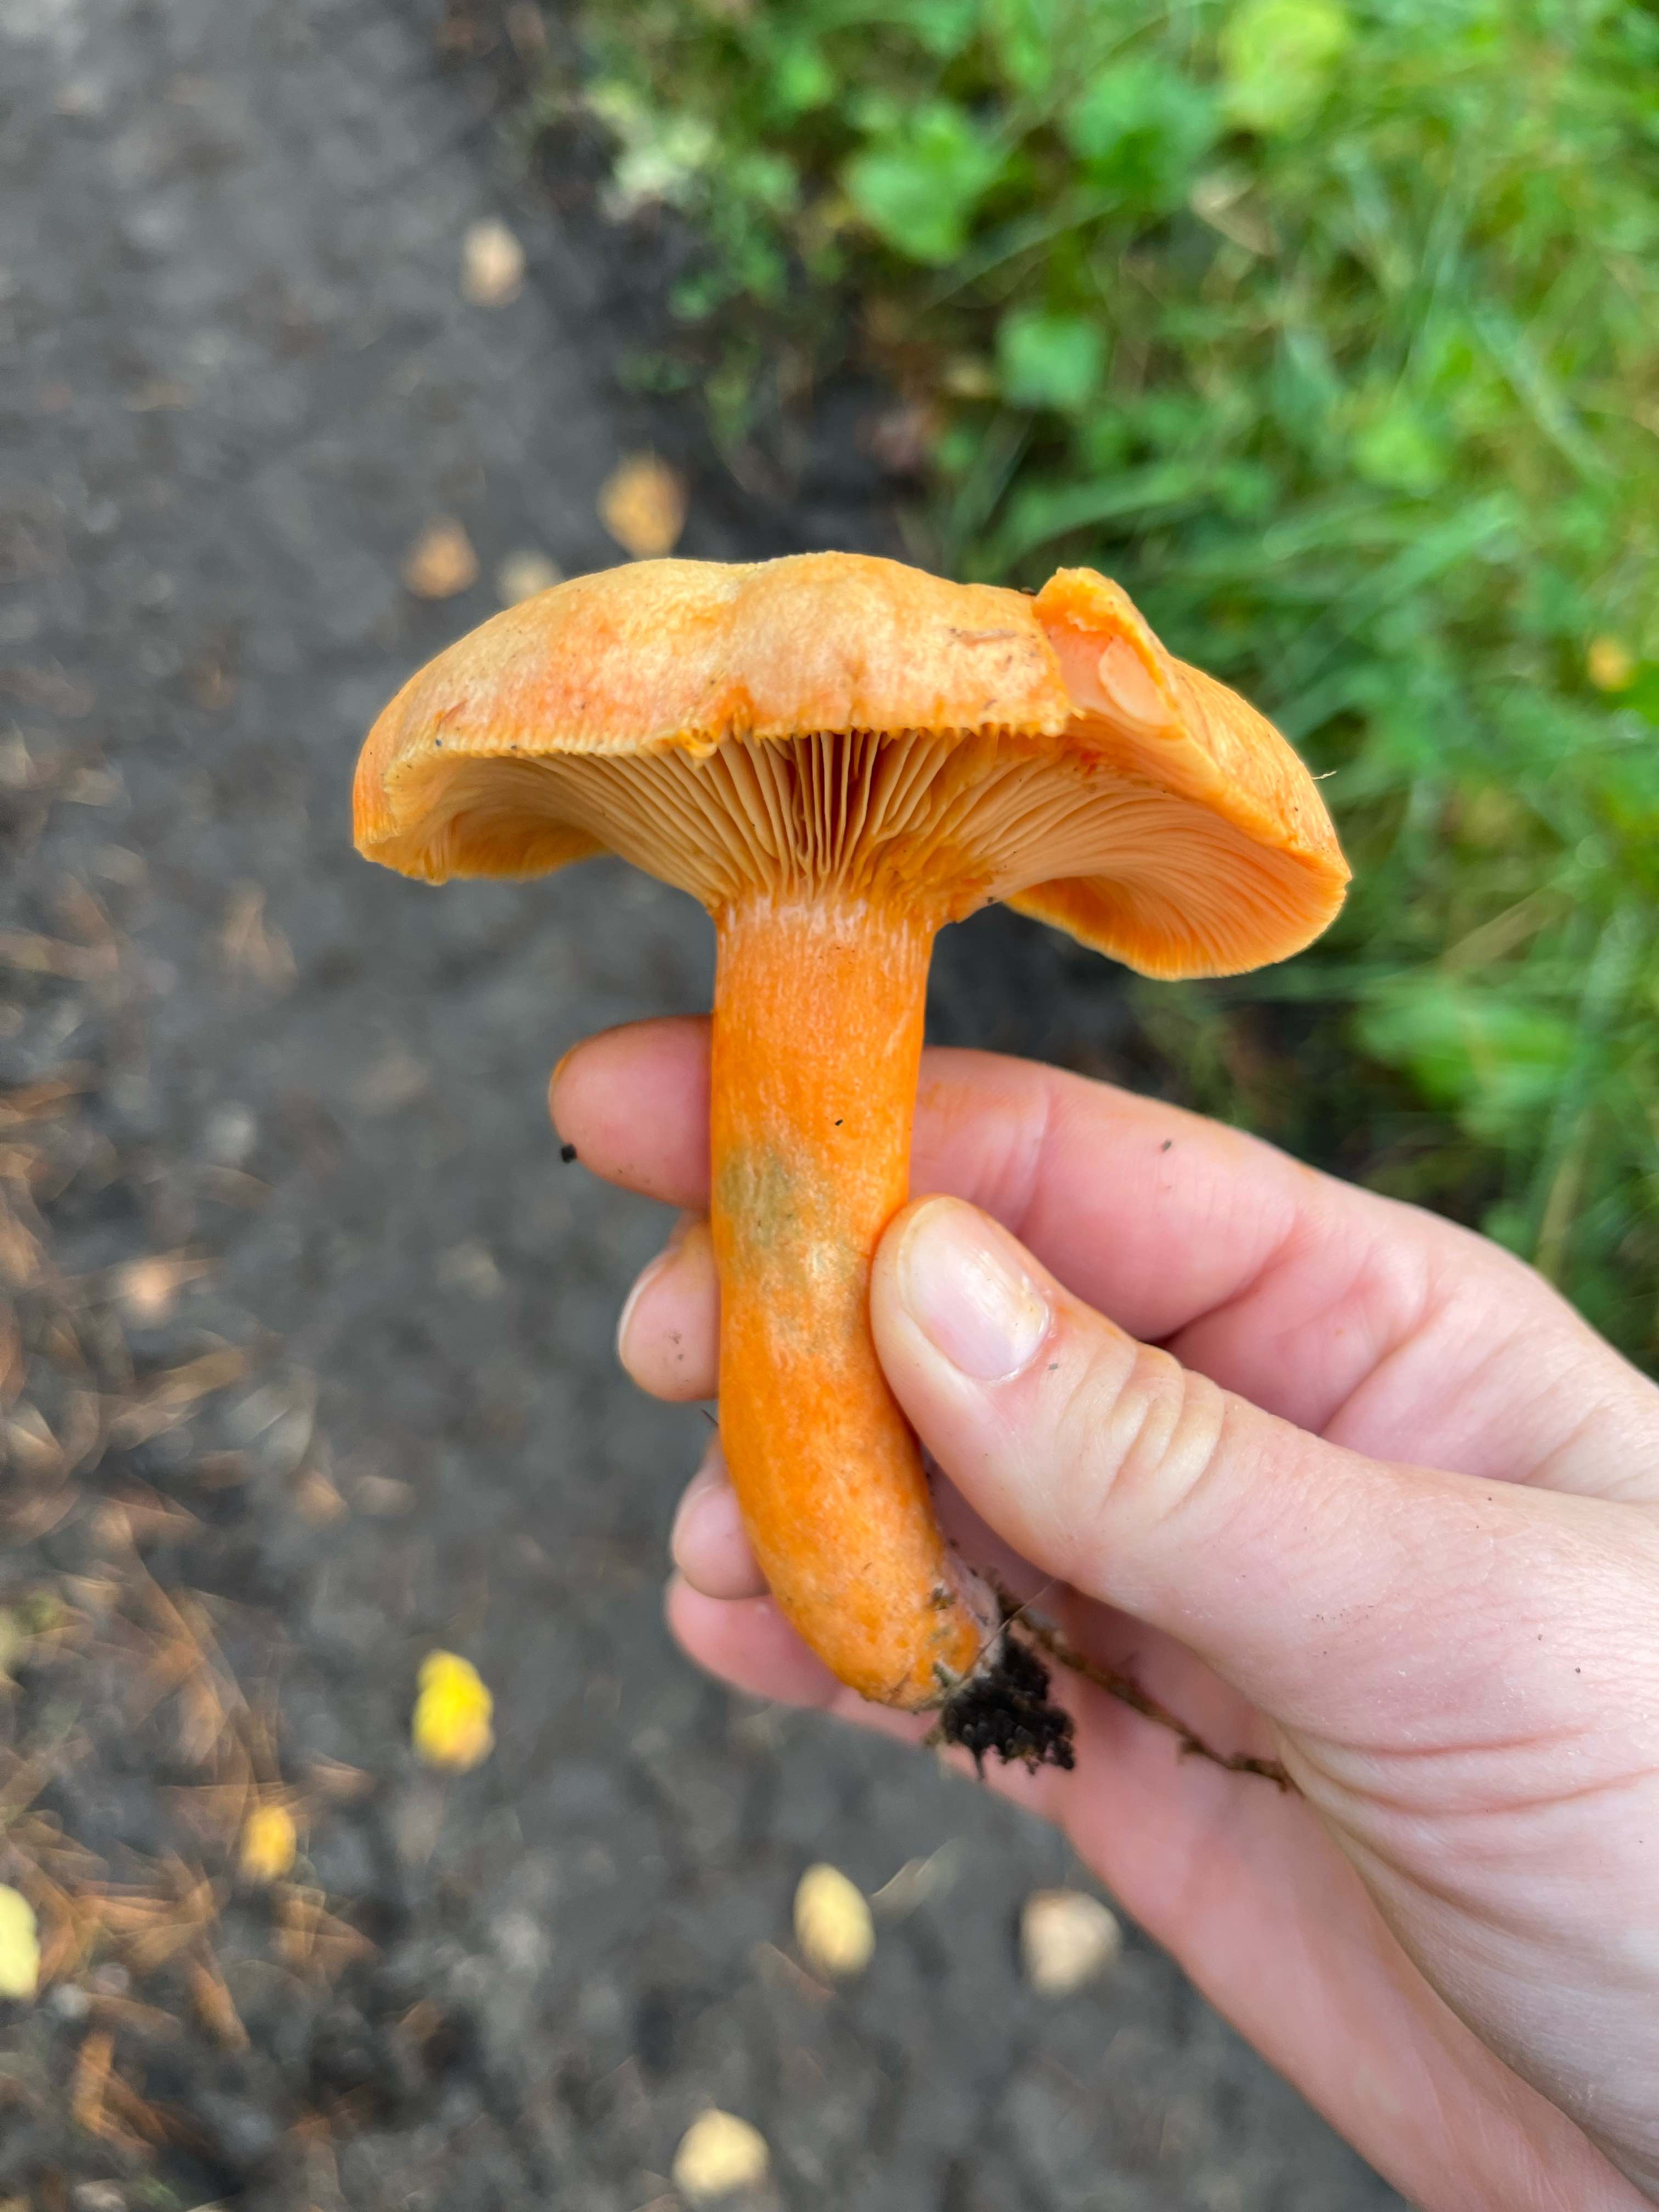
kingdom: Fungi
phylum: Basidiomycota
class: Agaricomycetes
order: Russulales
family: Russulaceae
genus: Lactarius
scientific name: Lactarius deterrimus
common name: gran-mælkehat
